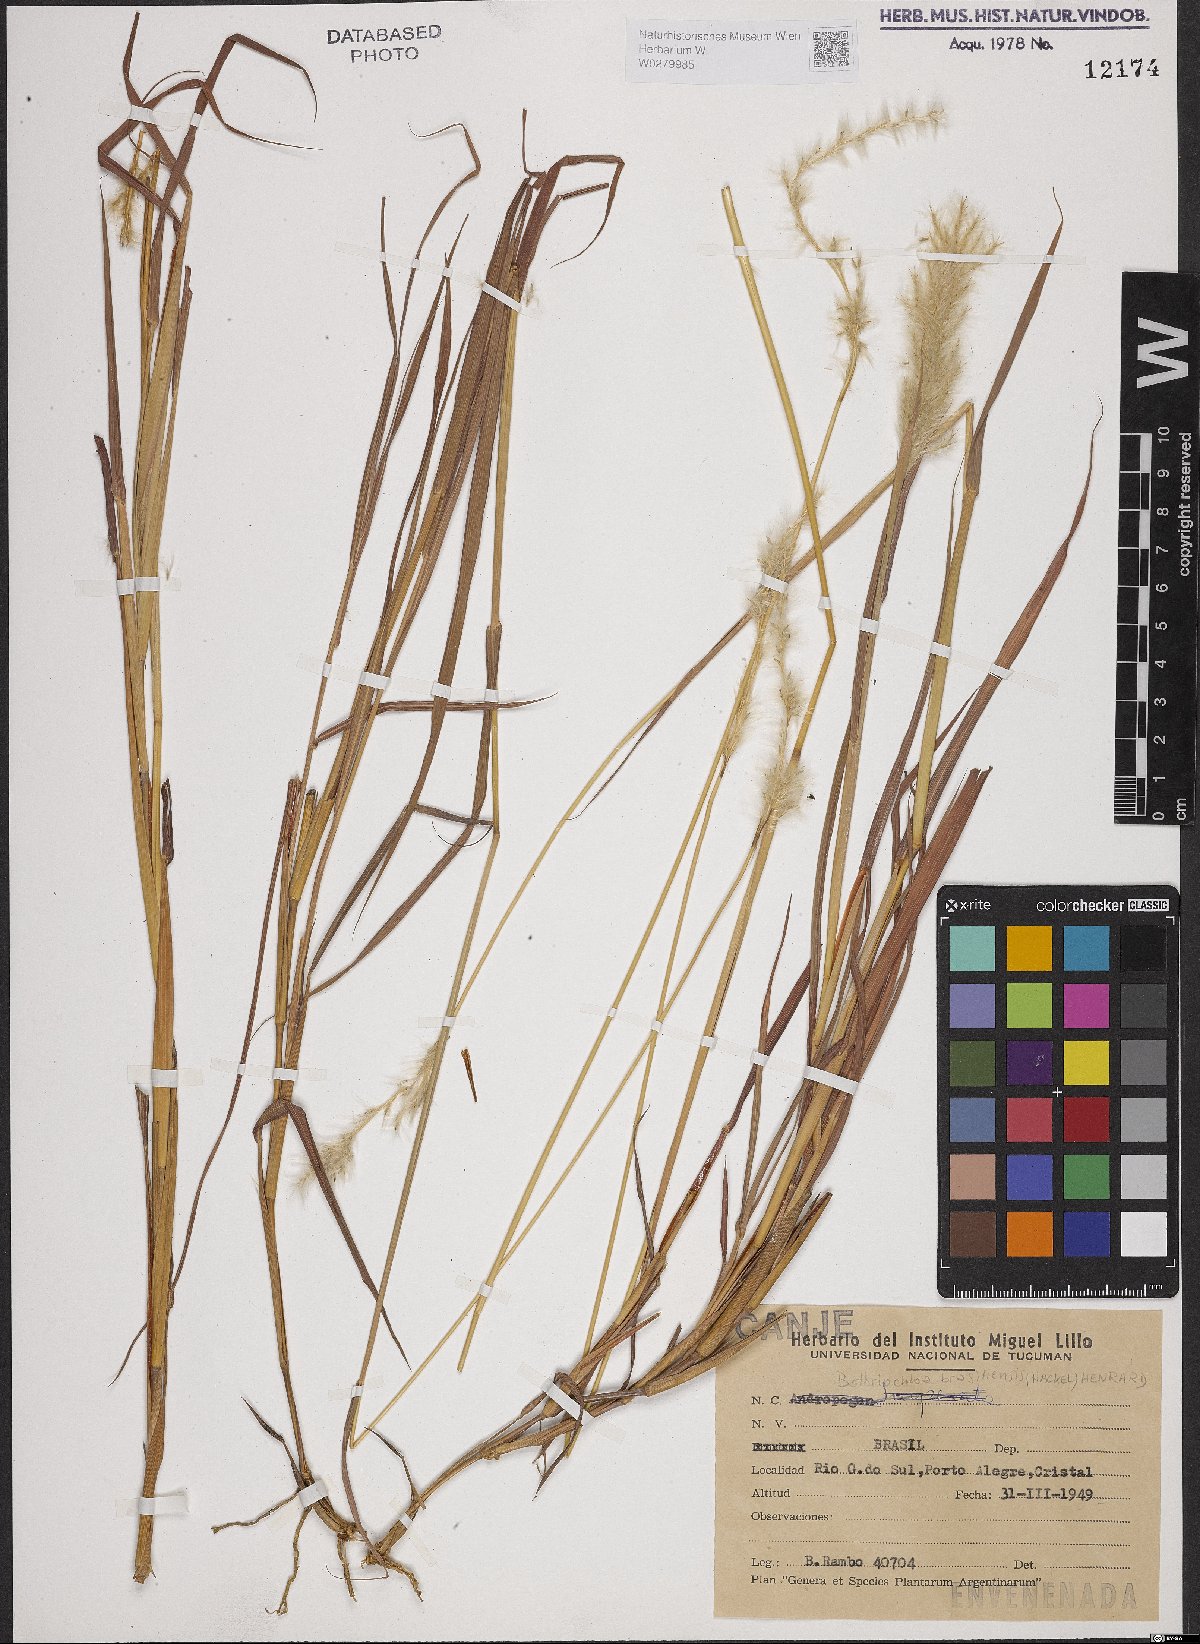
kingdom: Plantae
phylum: Tracheophyta
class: Liliopsida
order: Poales
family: Poaceae
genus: Bothriochloa
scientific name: Bothriochloa saccharoides
